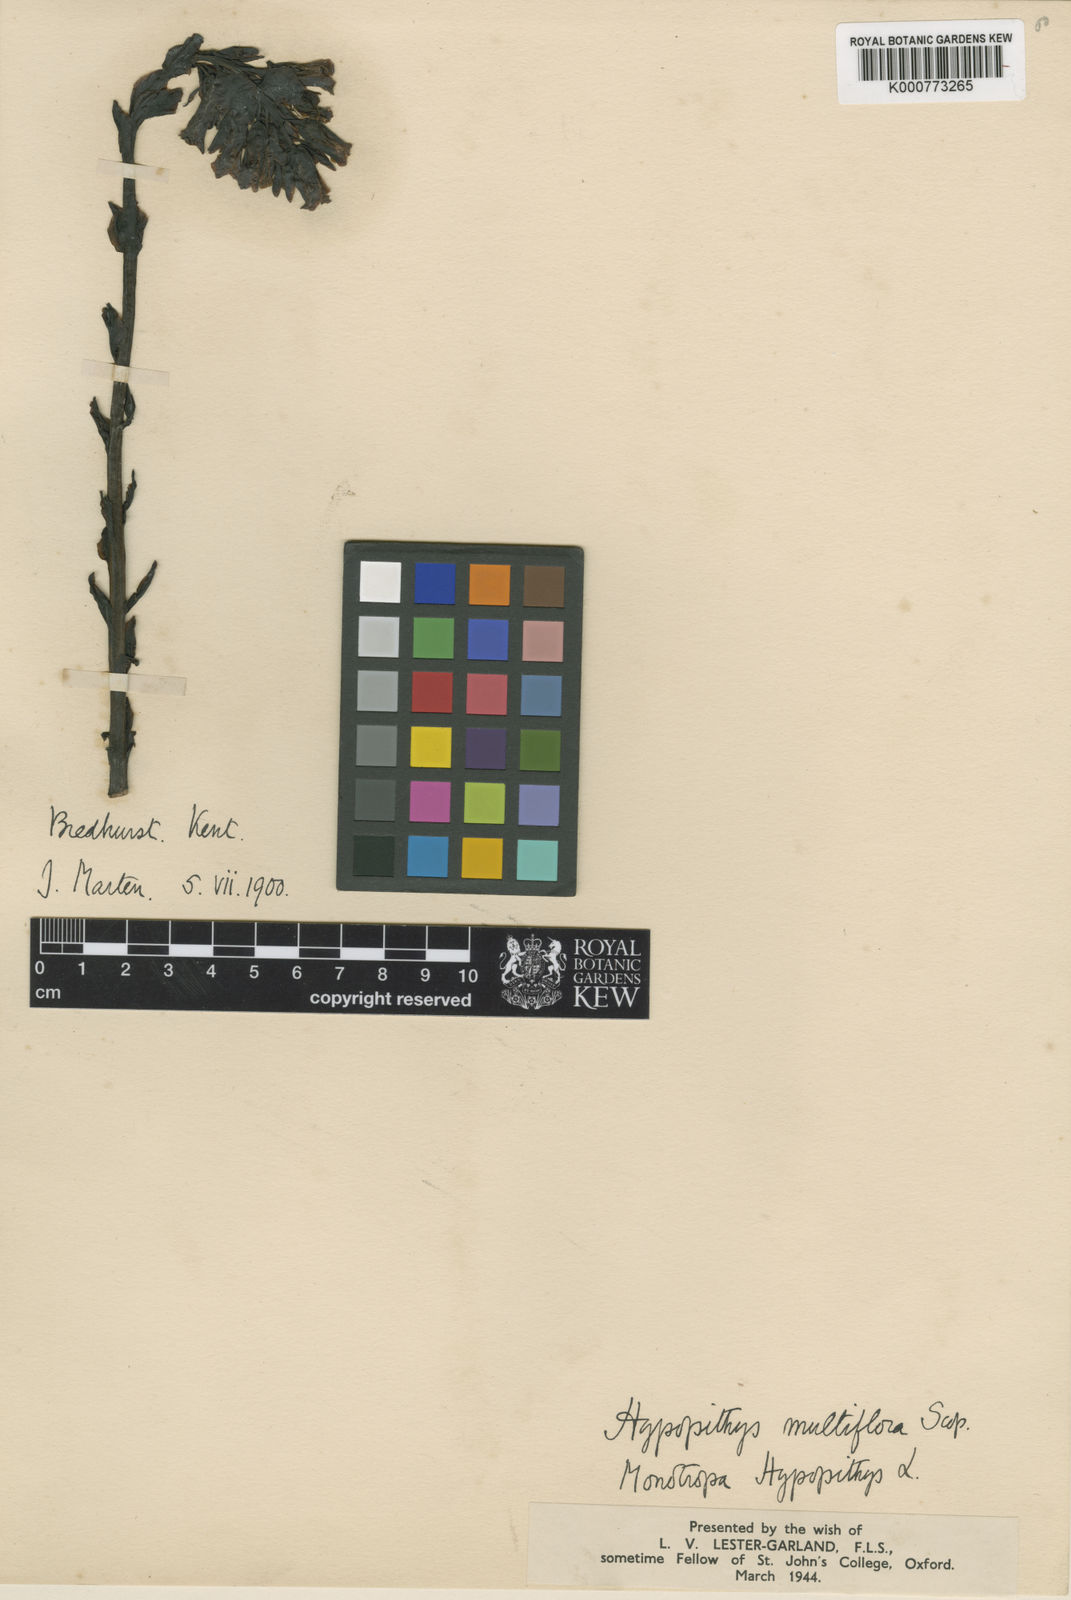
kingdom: Plantae
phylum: Tracheophyta
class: Magnoliopsida
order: Ericales
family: Ericaceae
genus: Monotropa
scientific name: Monotropa
